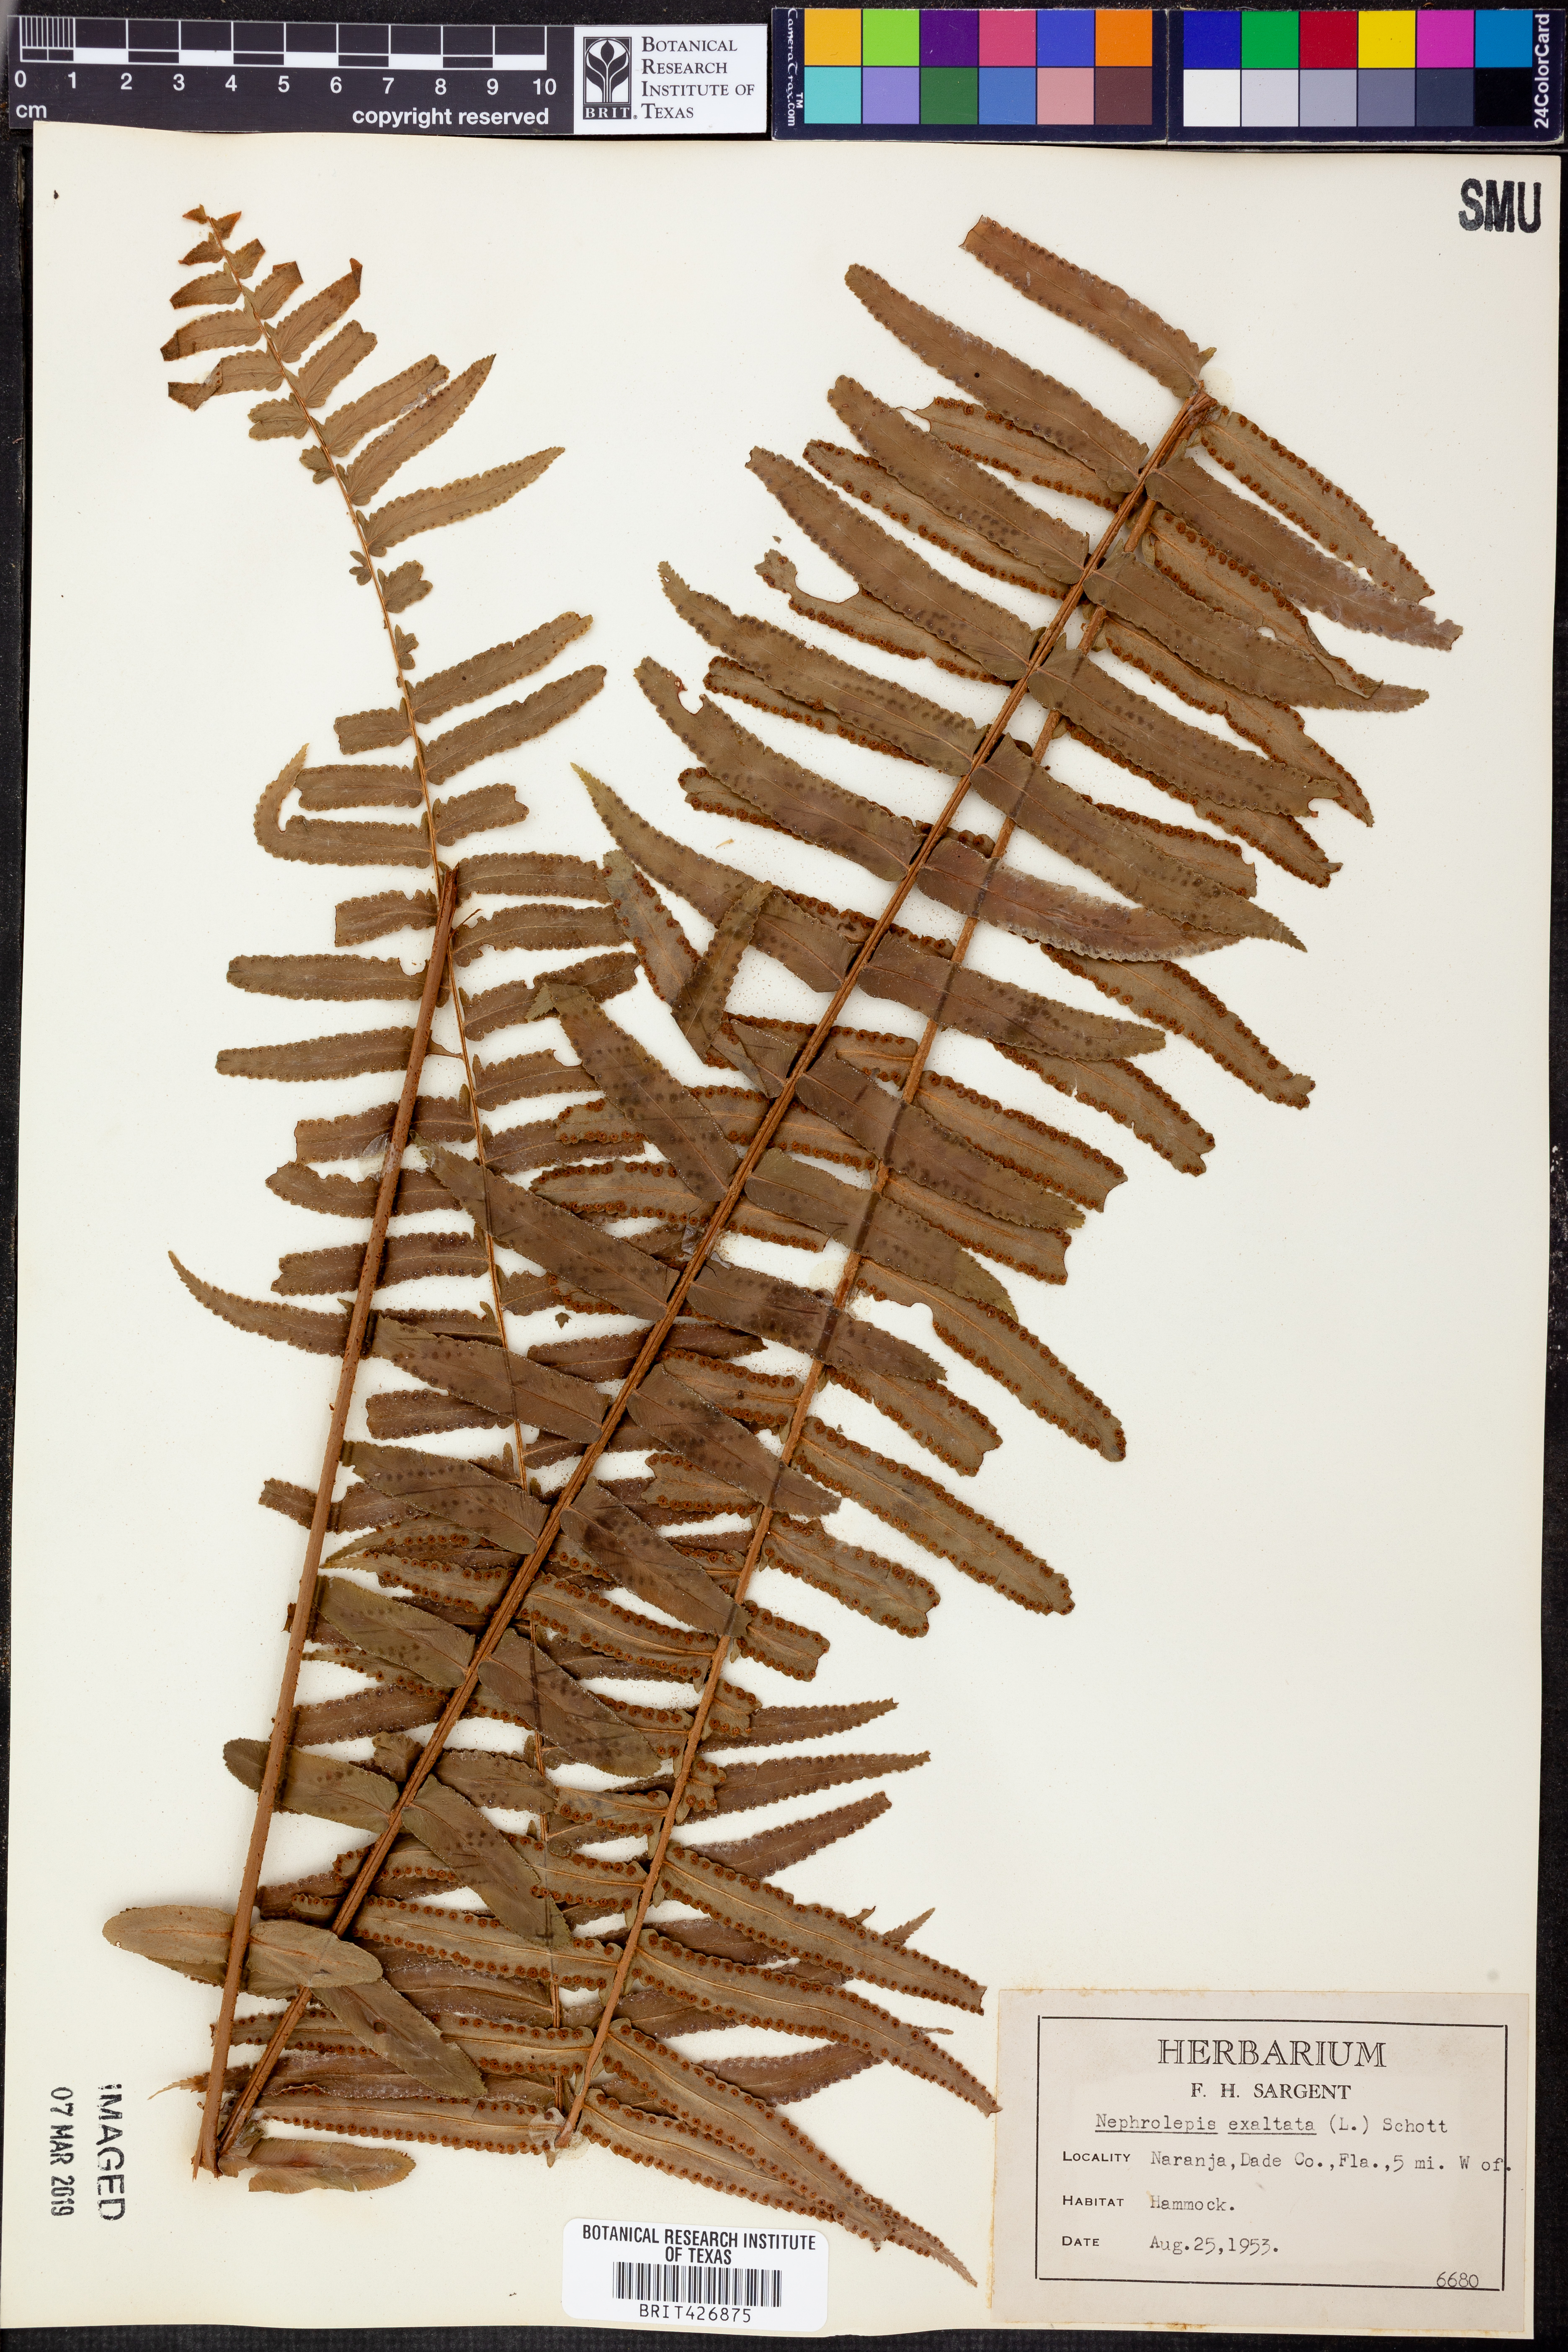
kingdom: Plantae
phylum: Tracheophyta
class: Polypodiopsida
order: Polypodiales
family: Nephrolepidaceae
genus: Nephrolepis
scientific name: Nephrolepis exaltata
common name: Sword fern
